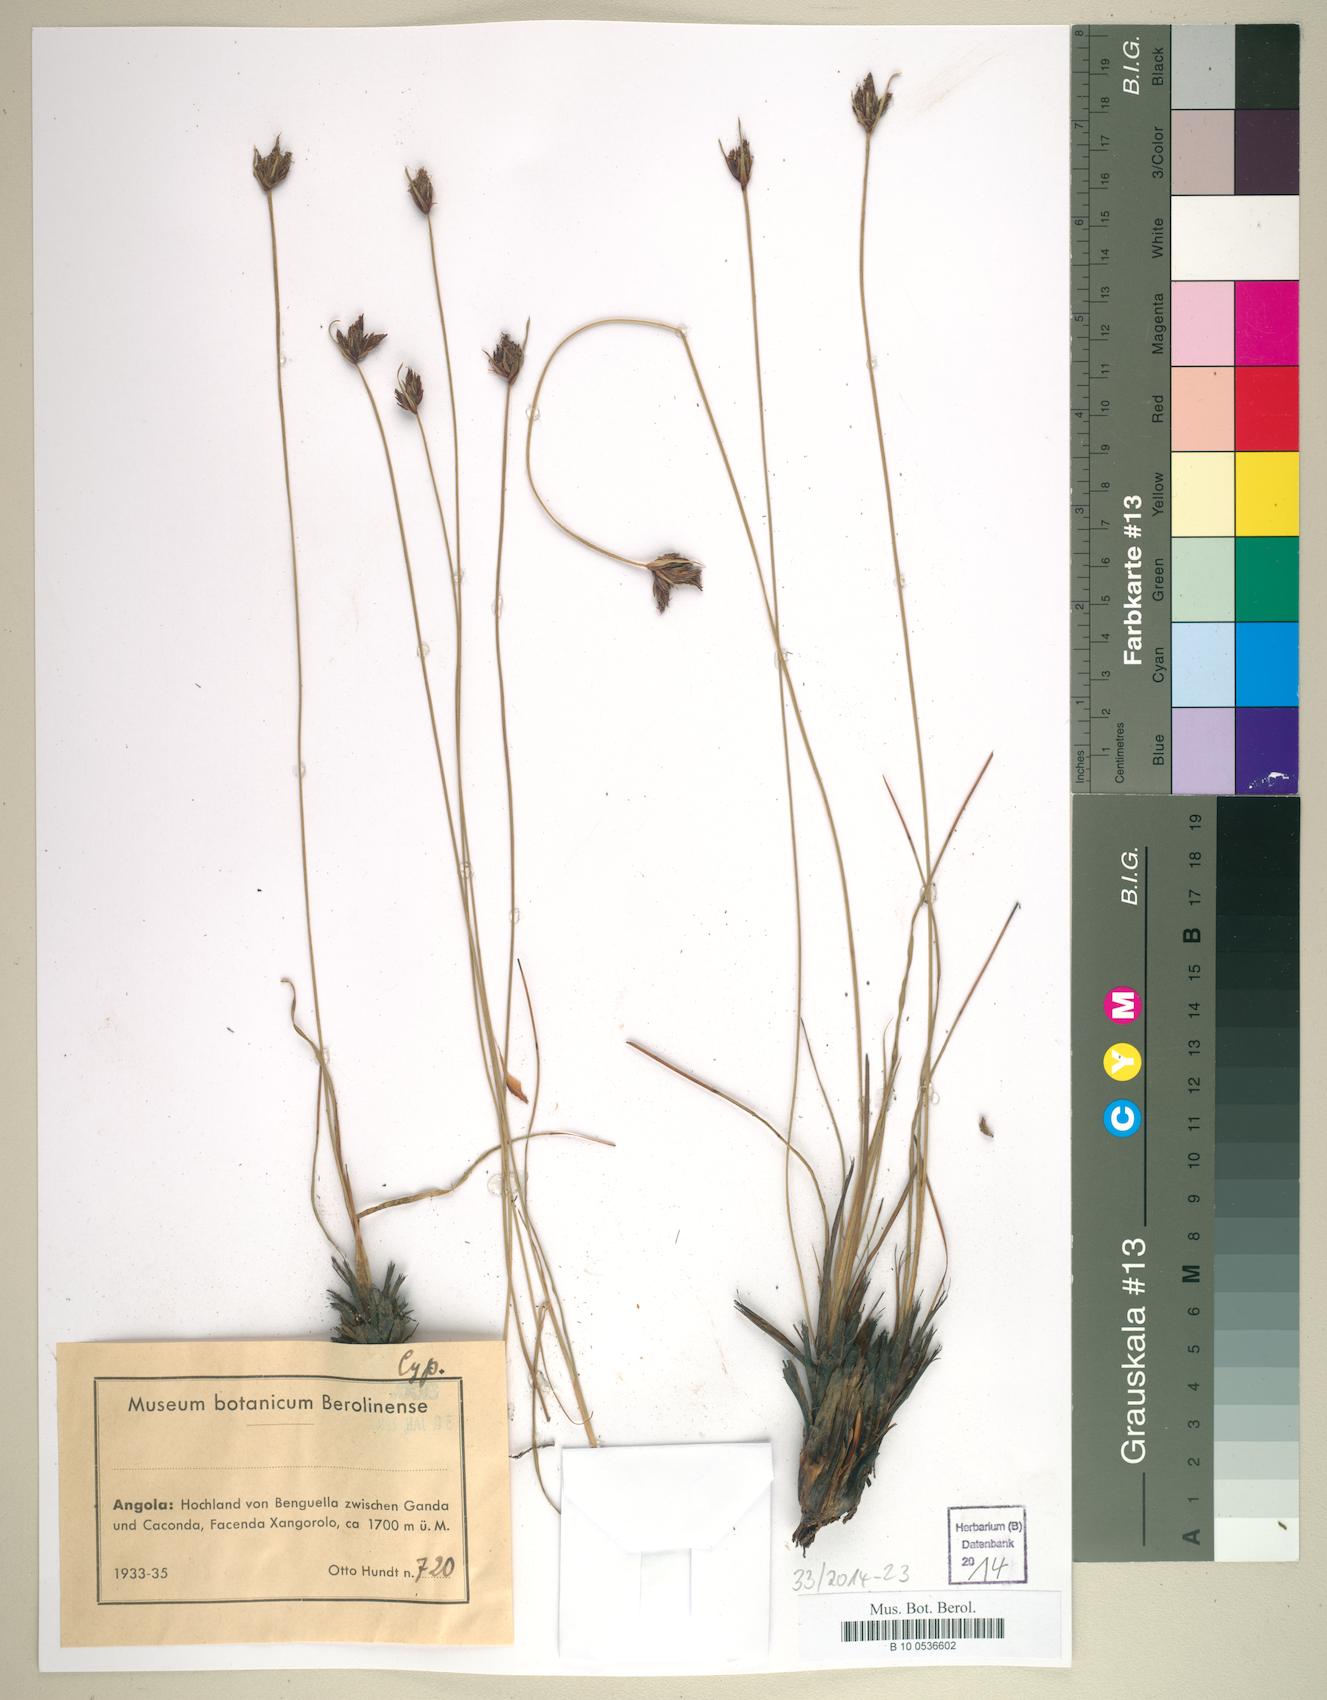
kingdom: Plantae
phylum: Tracheophyta
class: Liliopsida
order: Poales
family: Cyperaceae
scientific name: Cyperaceae
